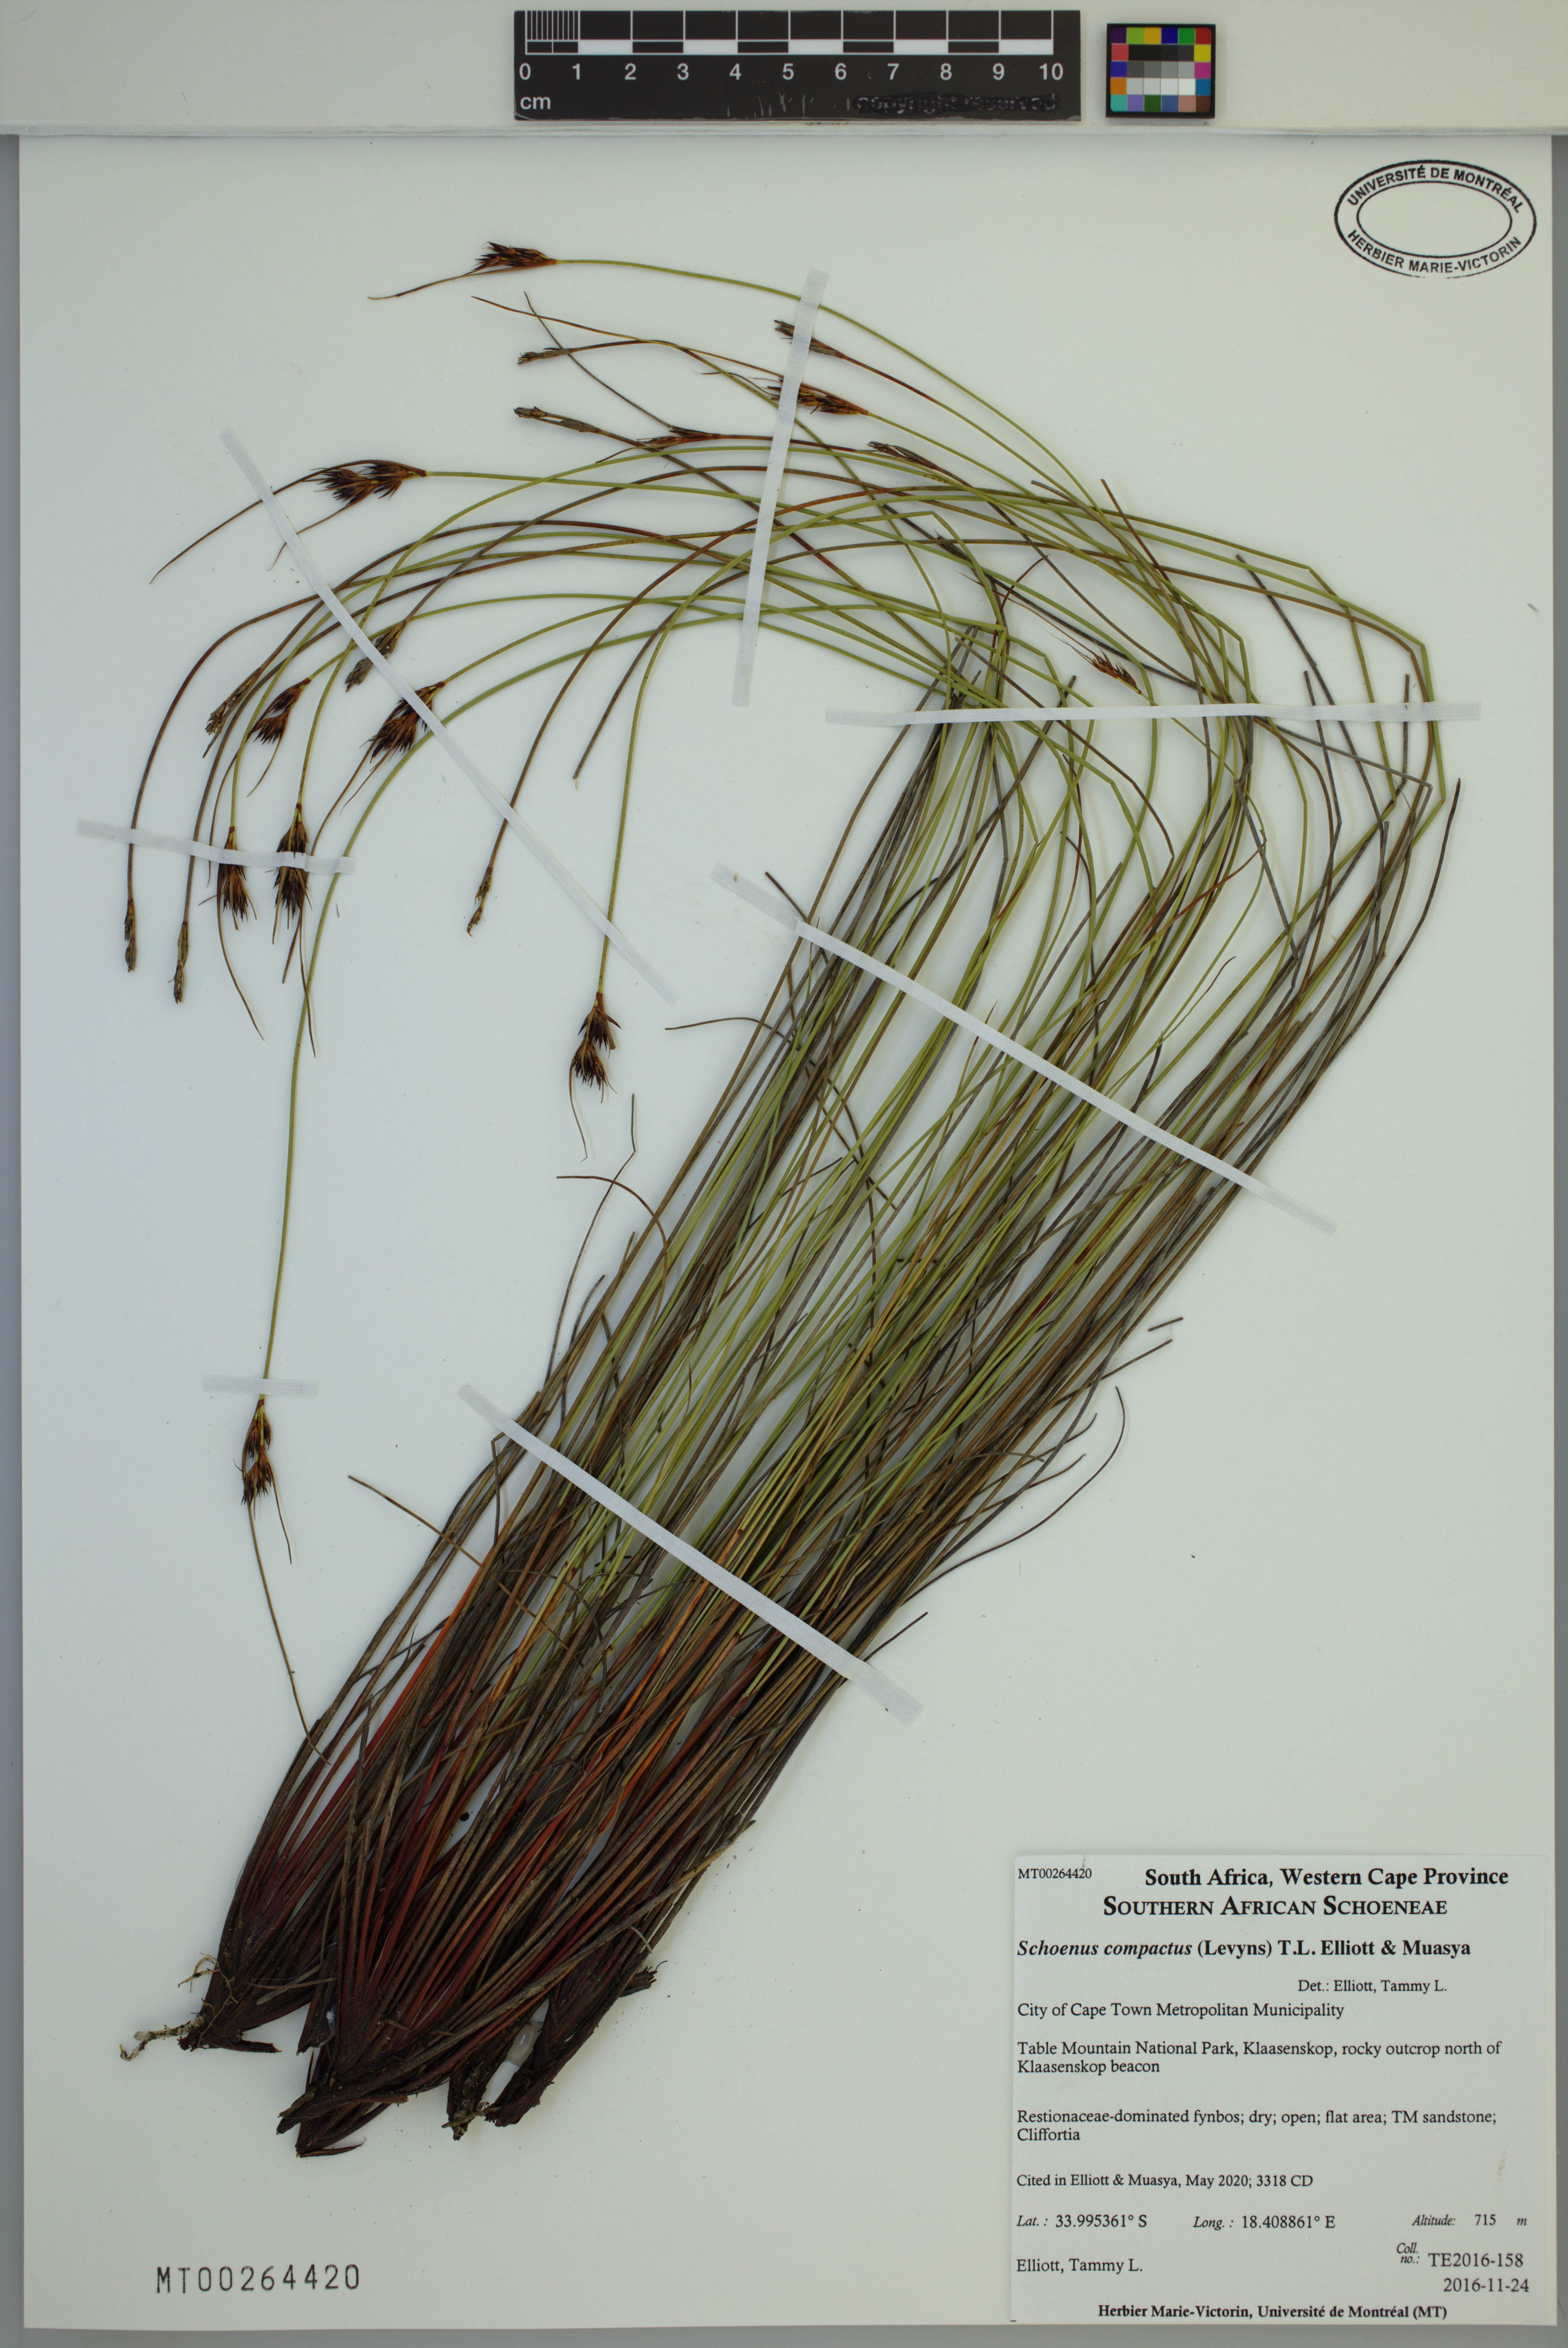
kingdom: Plantae
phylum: Tracheophyta
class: Liliopsida
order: Poales
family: Cyperaceae
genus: Schoenus
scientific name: Schoenus compactus
